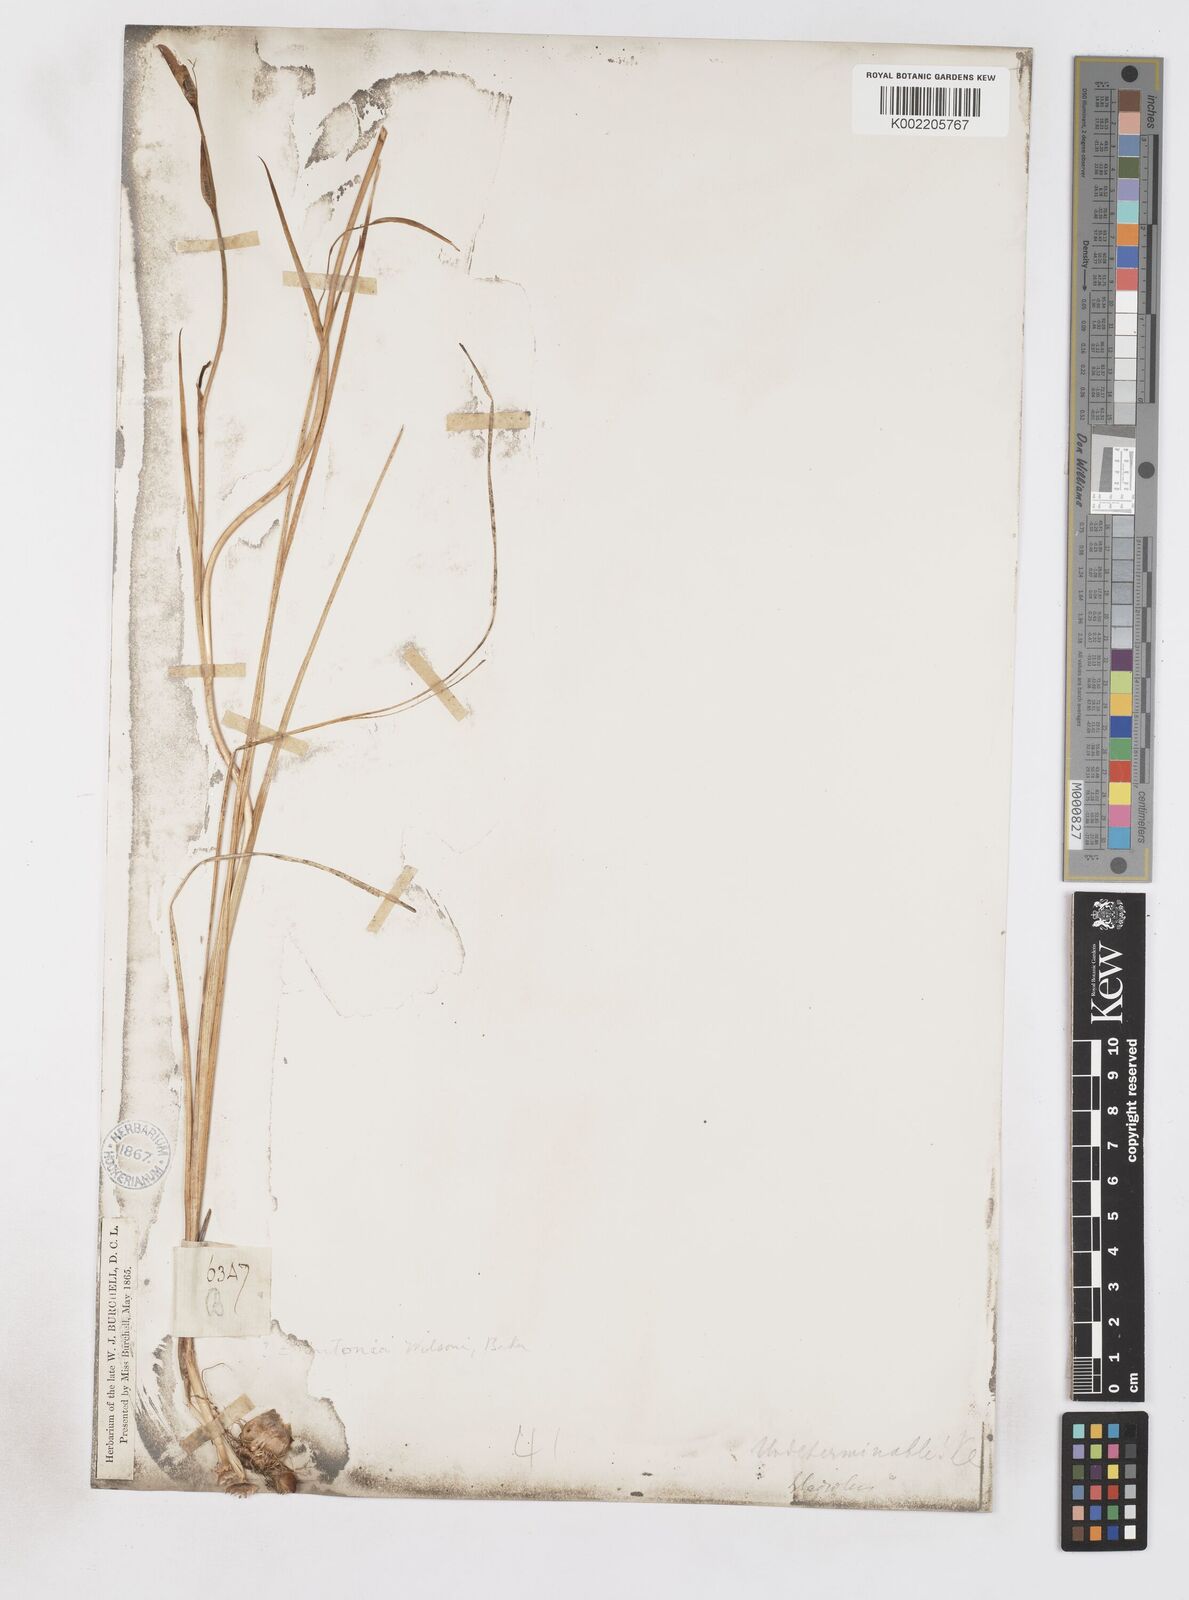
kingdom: Plantae
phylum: Tracheophyta
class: Liliopsida
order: Asparagales
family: Iridaceae
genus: Gladiolus
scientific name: Gladiolus wilsonii
